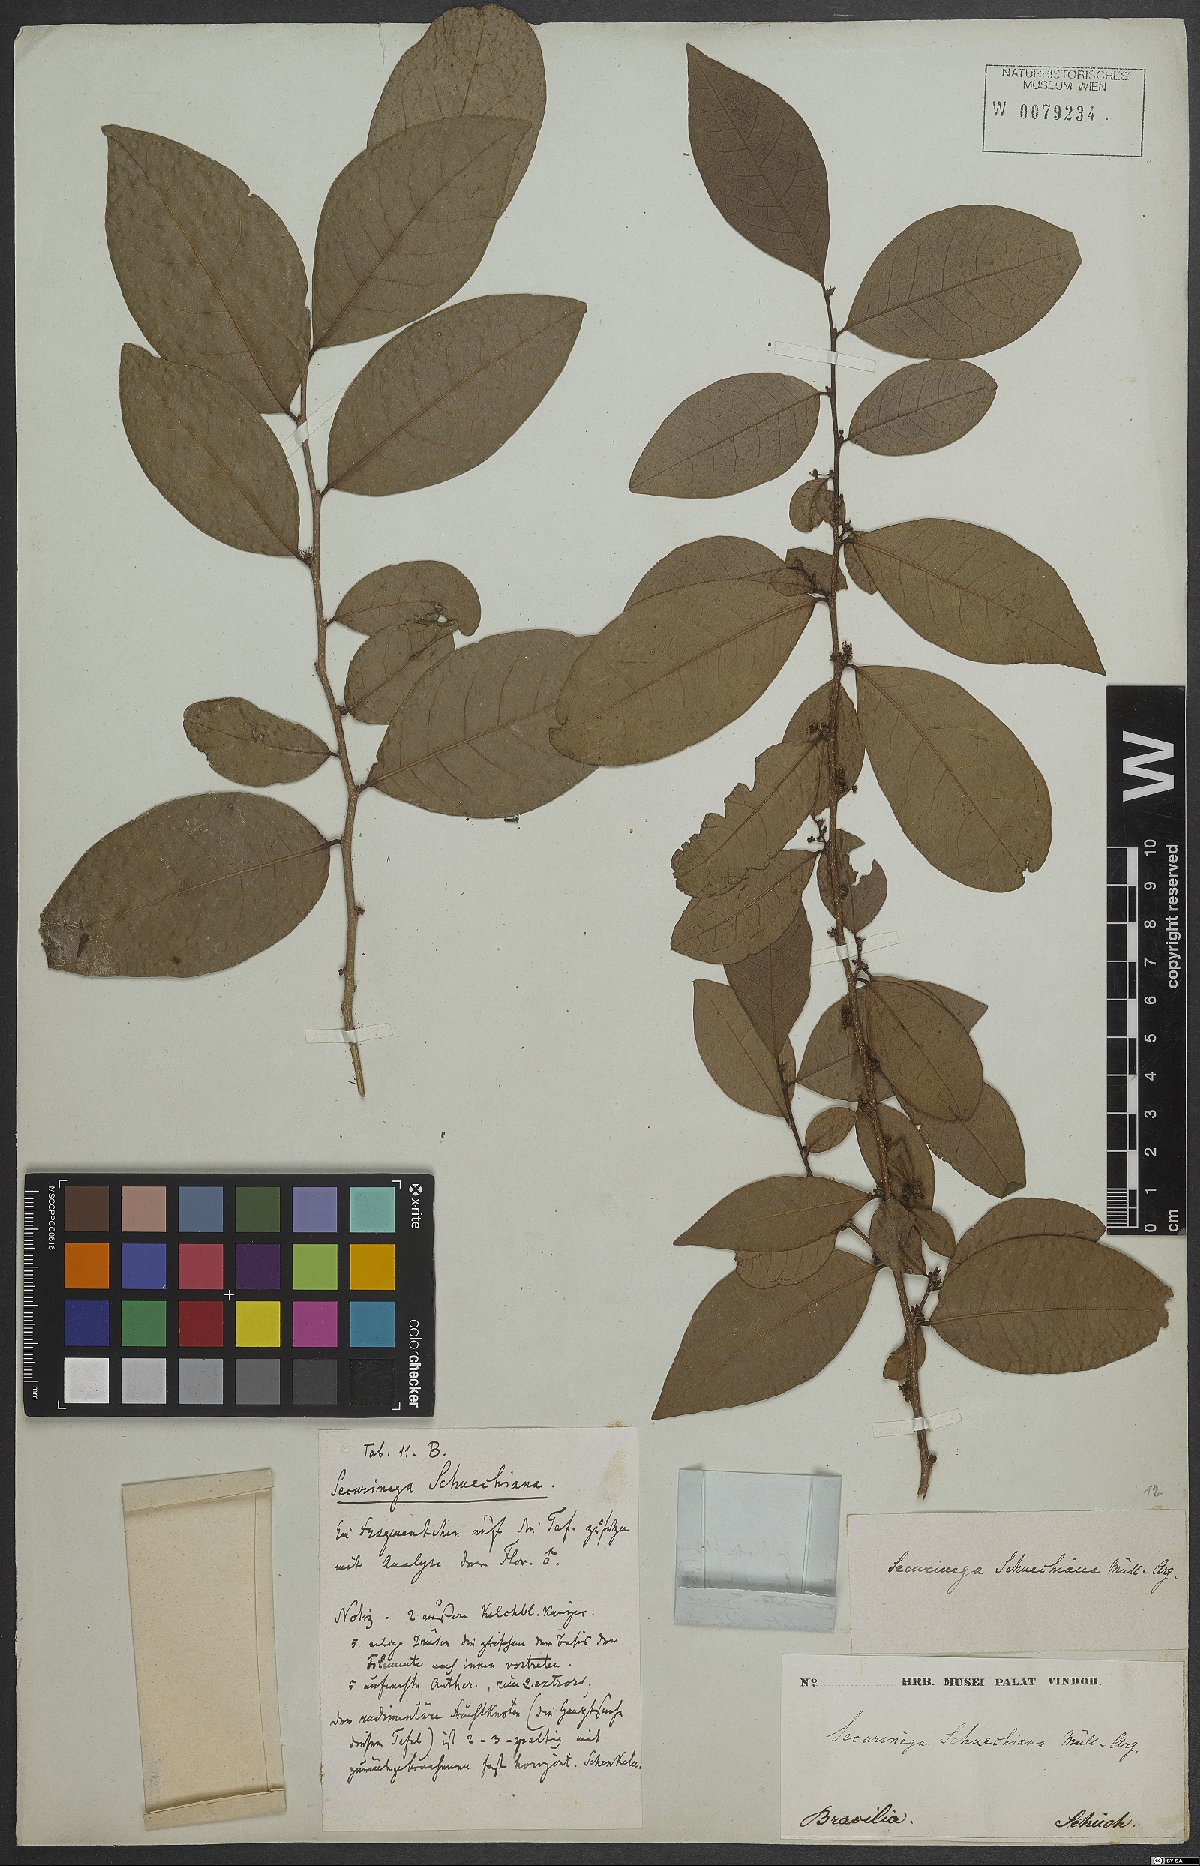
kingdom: Plantae
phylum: Tracheophyta
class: Magnoliopsida
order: Malpighiales
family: Phyllanthaceae
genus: Flueggea
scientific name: Flueggea schuechiana
